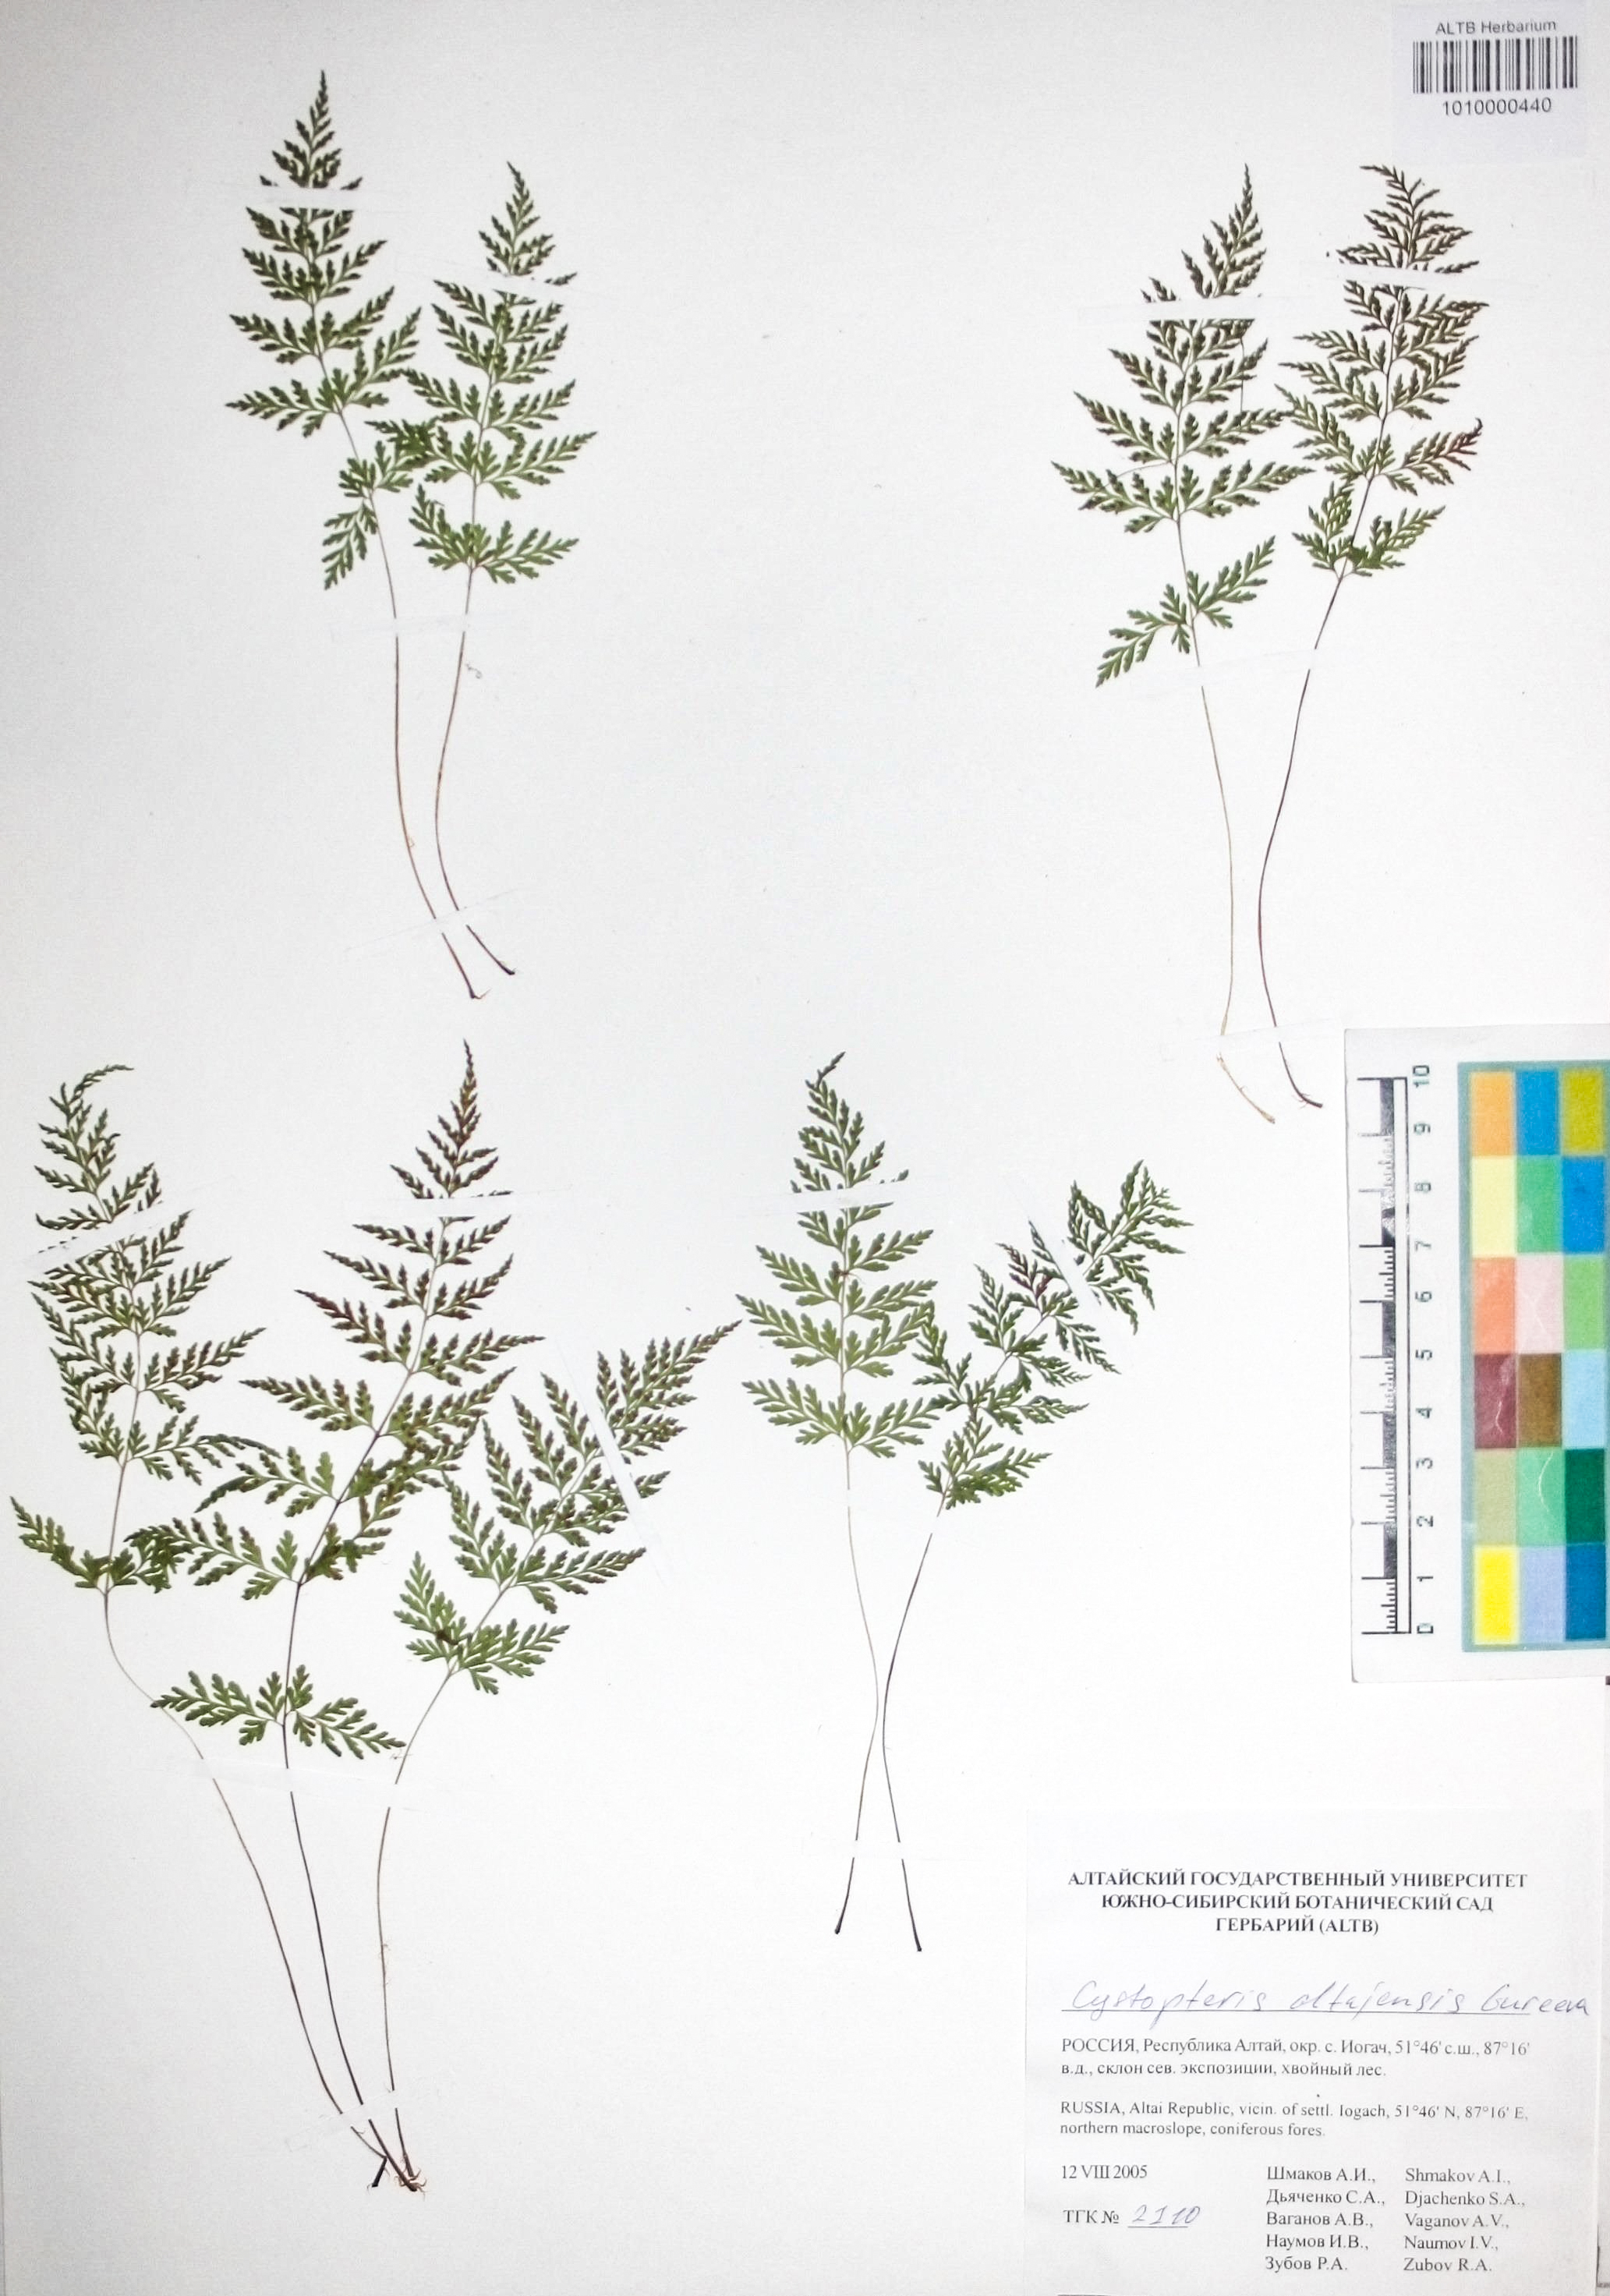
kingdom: Plantae
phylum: Tracheophyta
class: Polypodiopsida
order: Polypodiales
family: Cystopteridaceae
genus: Cystopteris
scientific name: Cystopteris diaphana
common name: Greenish bladder-fern
